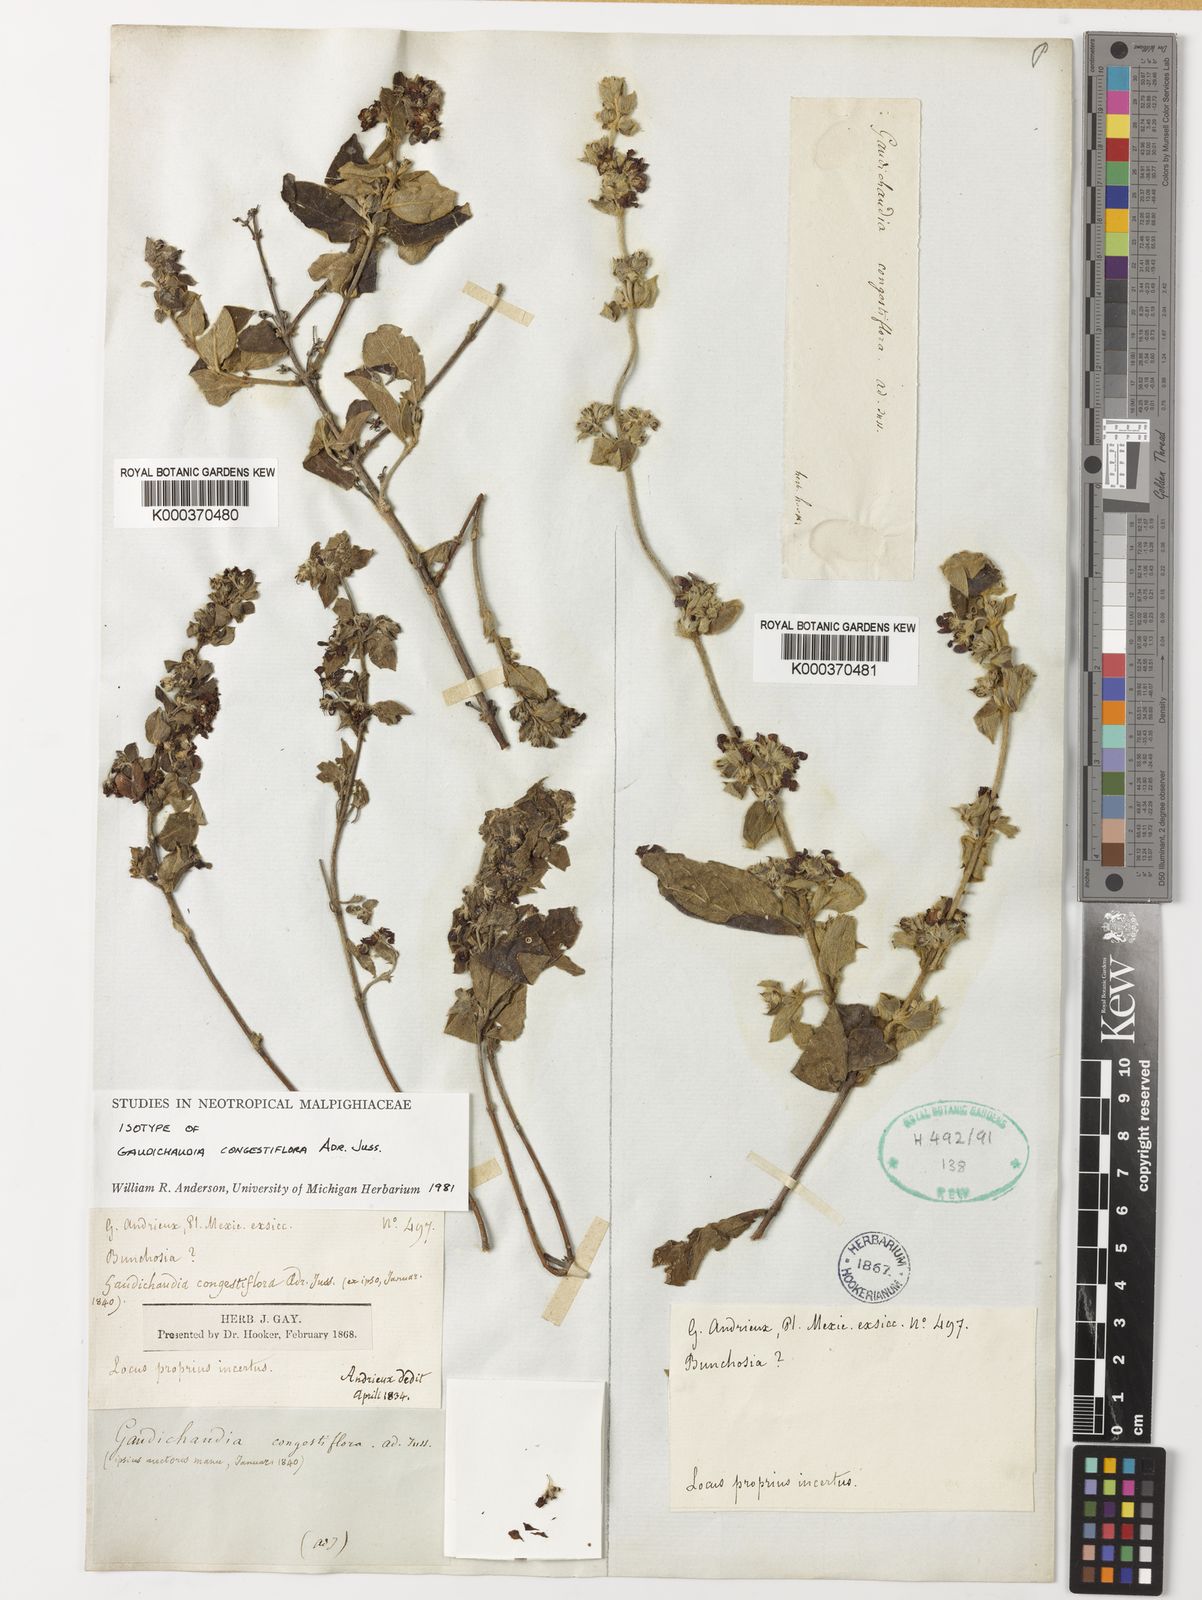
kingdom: Plantae
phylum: Tracheophyta
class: Magnoliopsida
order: Malpighiales
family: Malpighiaceae
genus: Gaudichaudia
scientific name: Gaudichaudia
